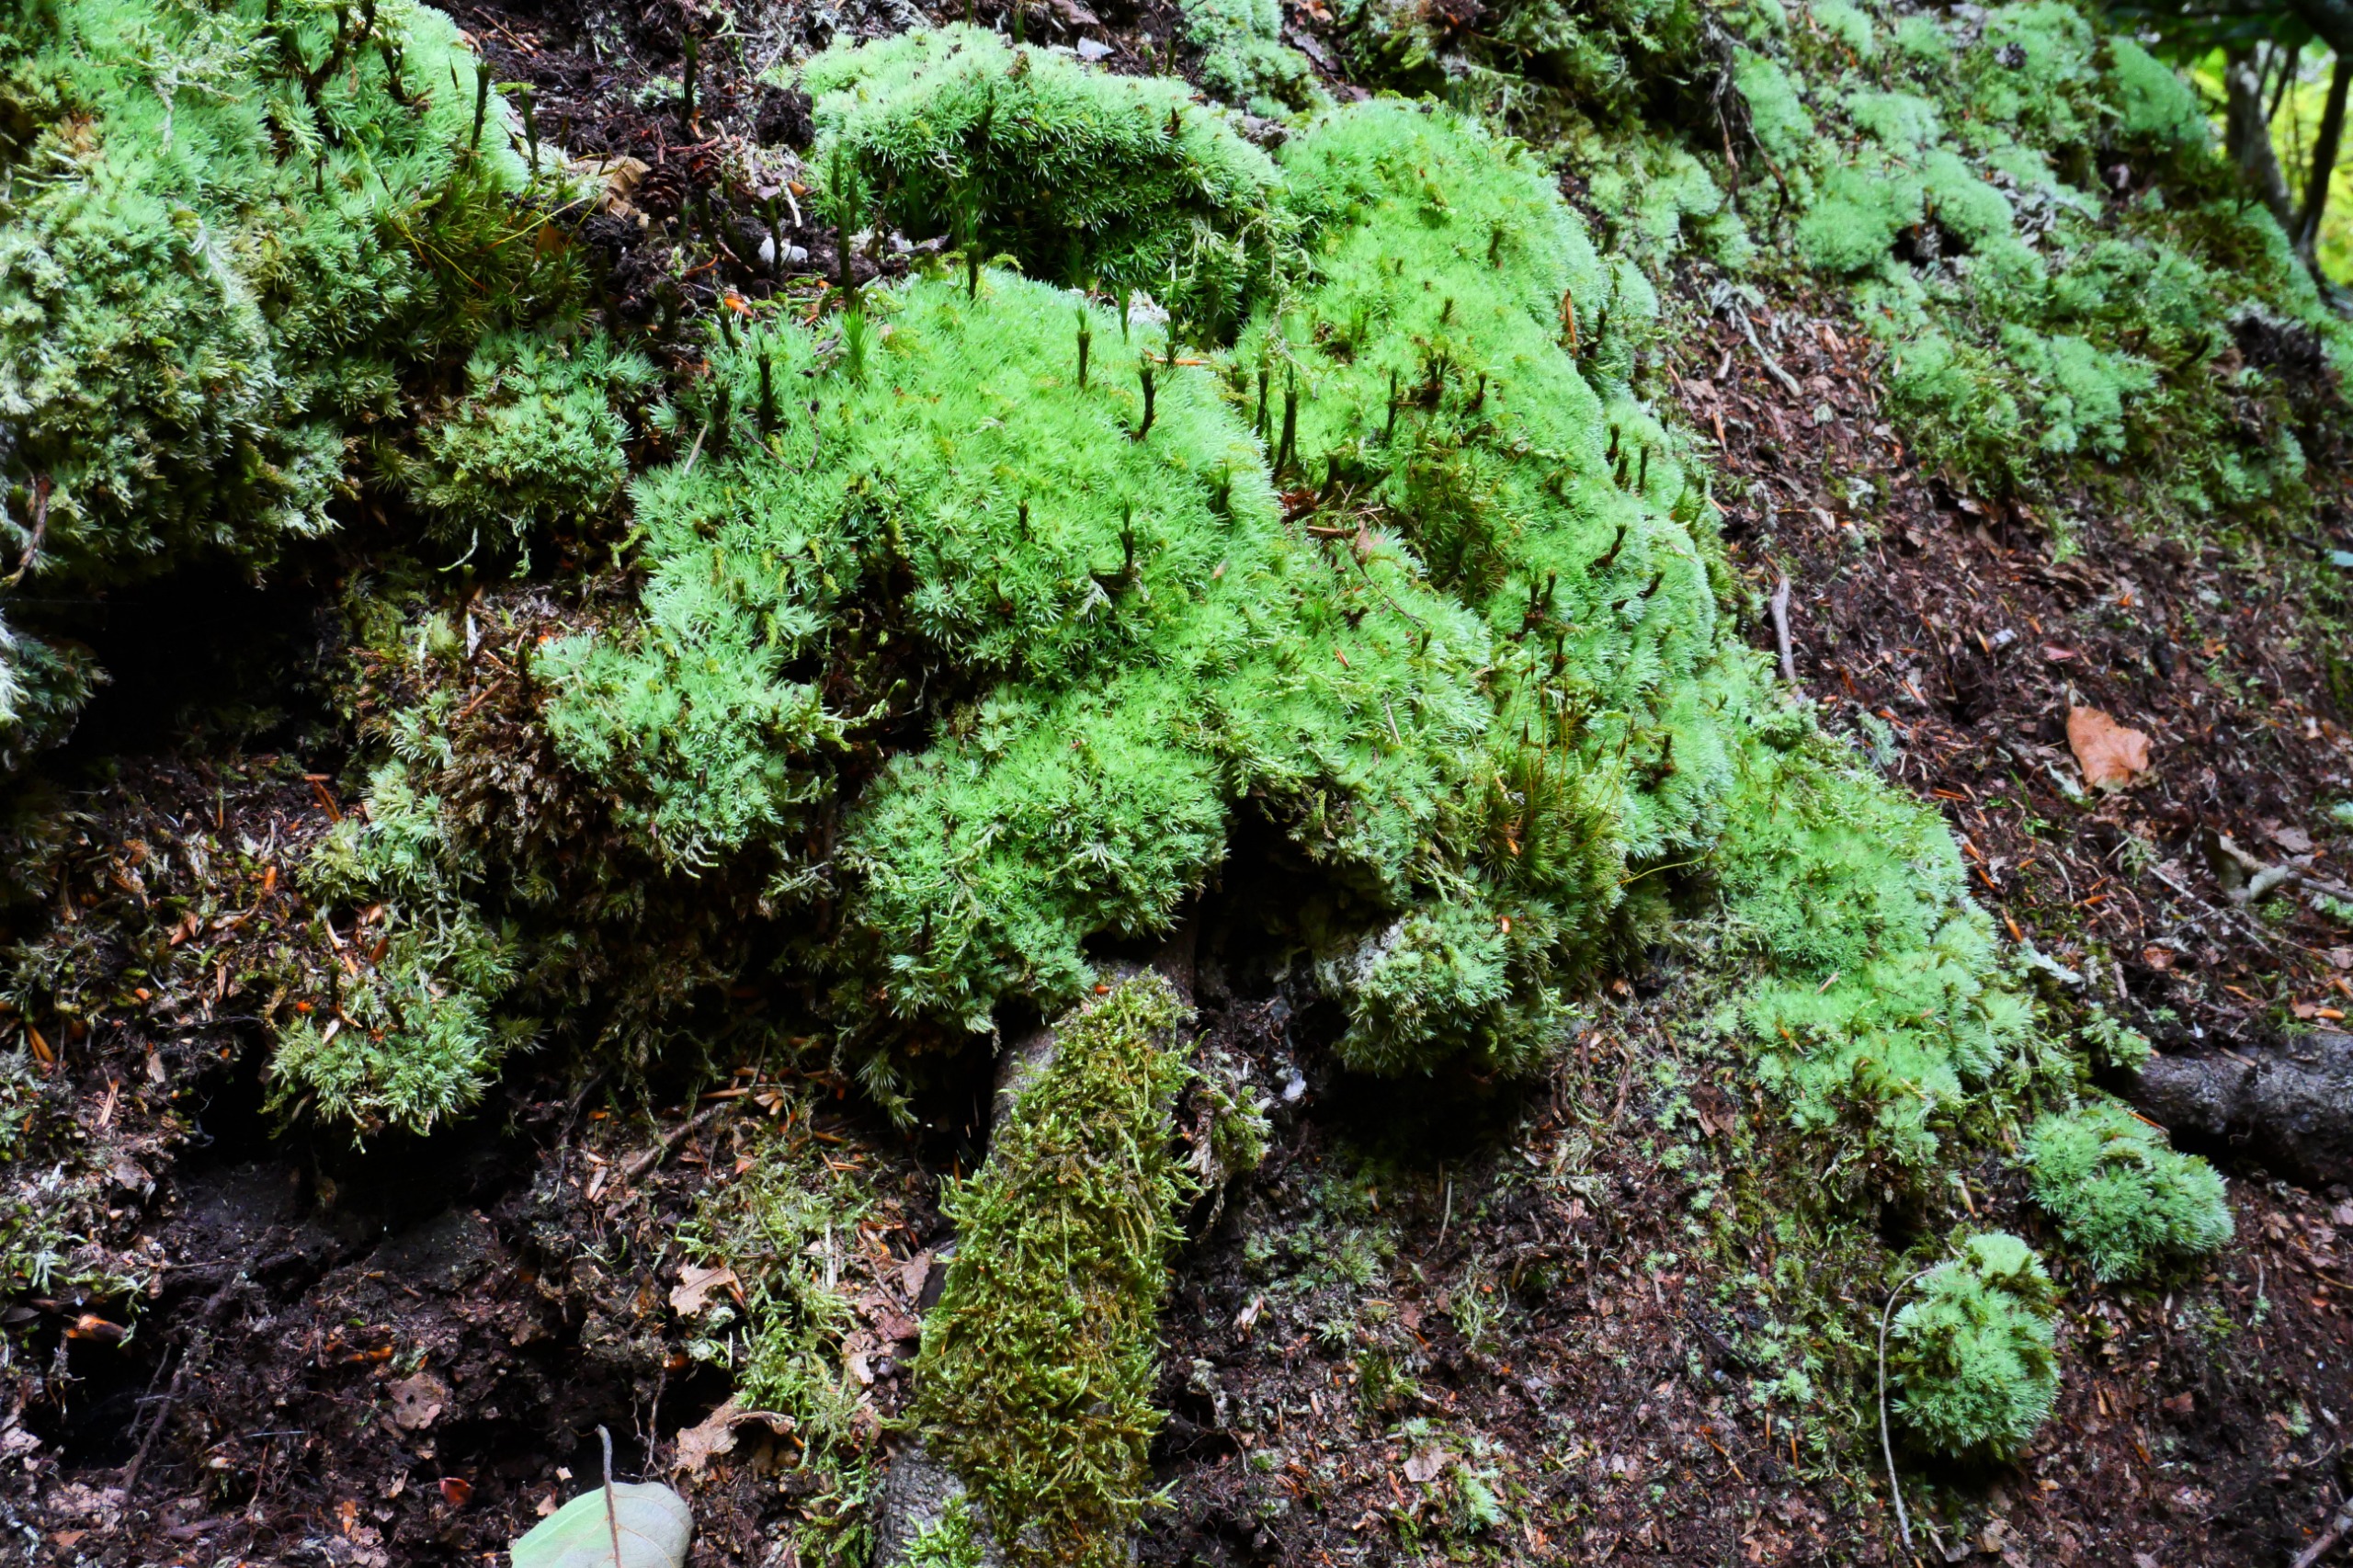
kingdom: Plantae
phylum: Bryophyta
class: Bryopsida
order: Dicranales
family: Leucobryaceae
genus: Leucobryum
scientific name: Leucobryum glaucum
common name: Almindelig hvidmos
